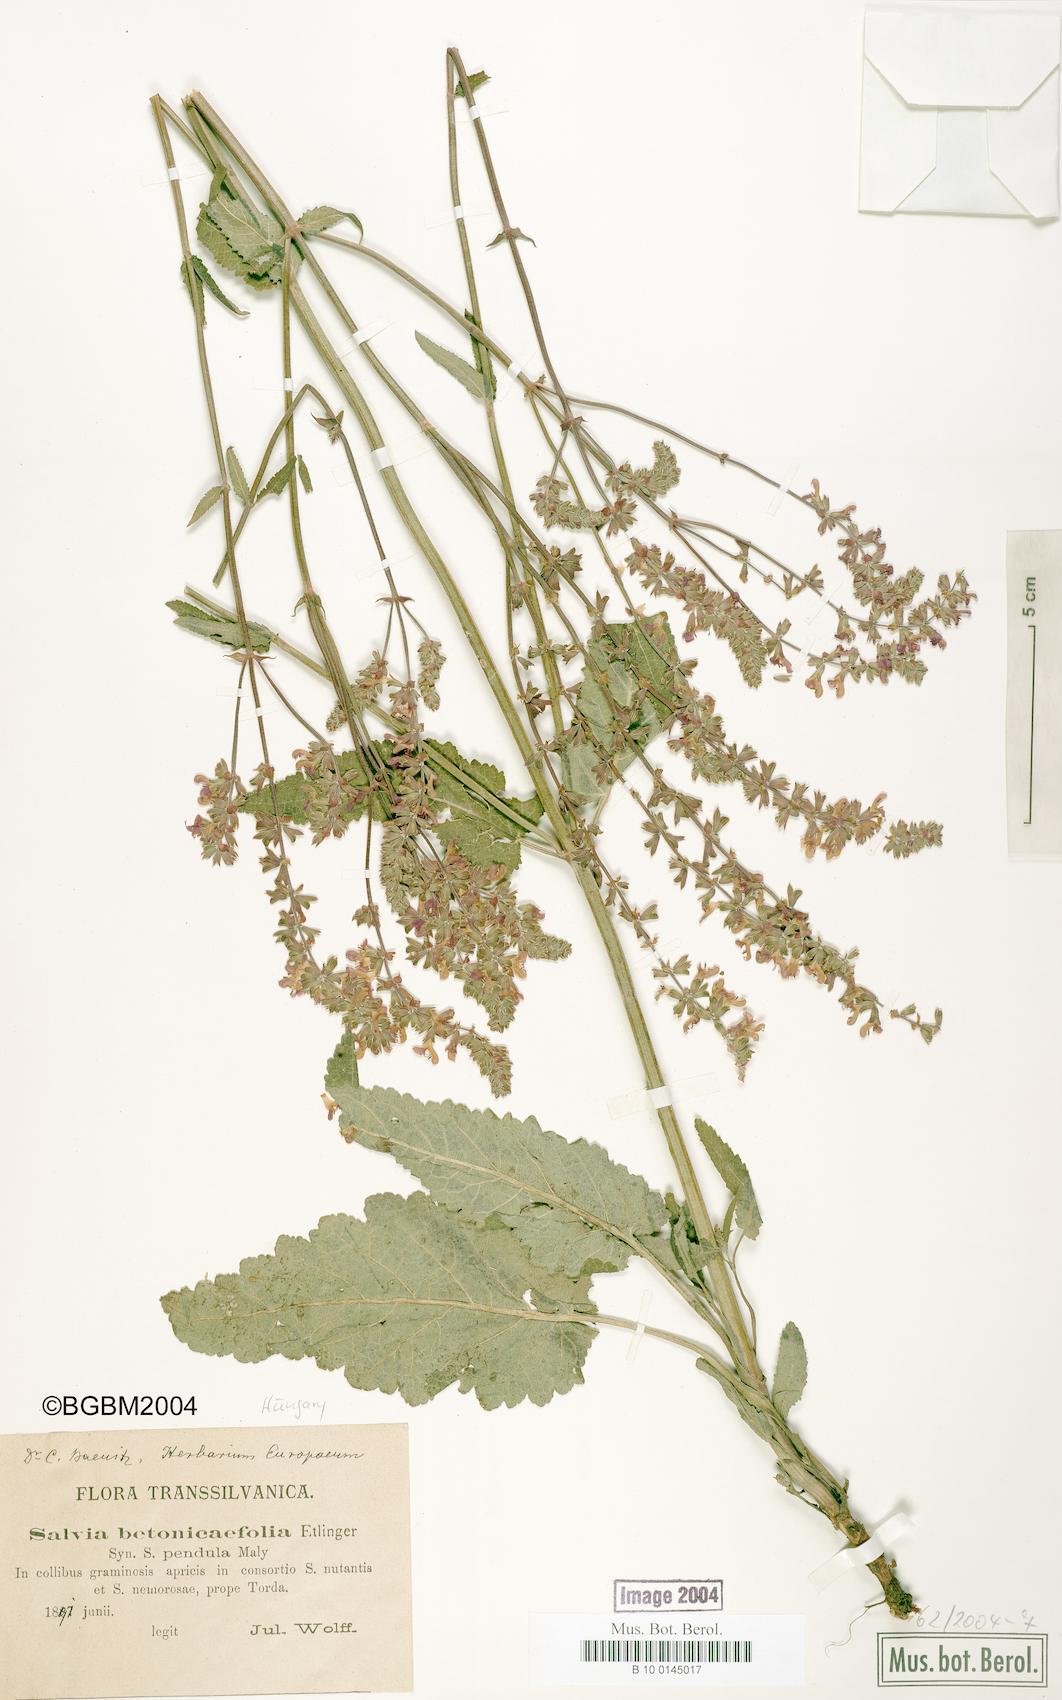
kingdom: Plantae
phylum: Tracheophyta
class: Magnoliopsida
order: Lamiales
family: Lamiaceae
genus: Salvia
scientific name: Salvia
